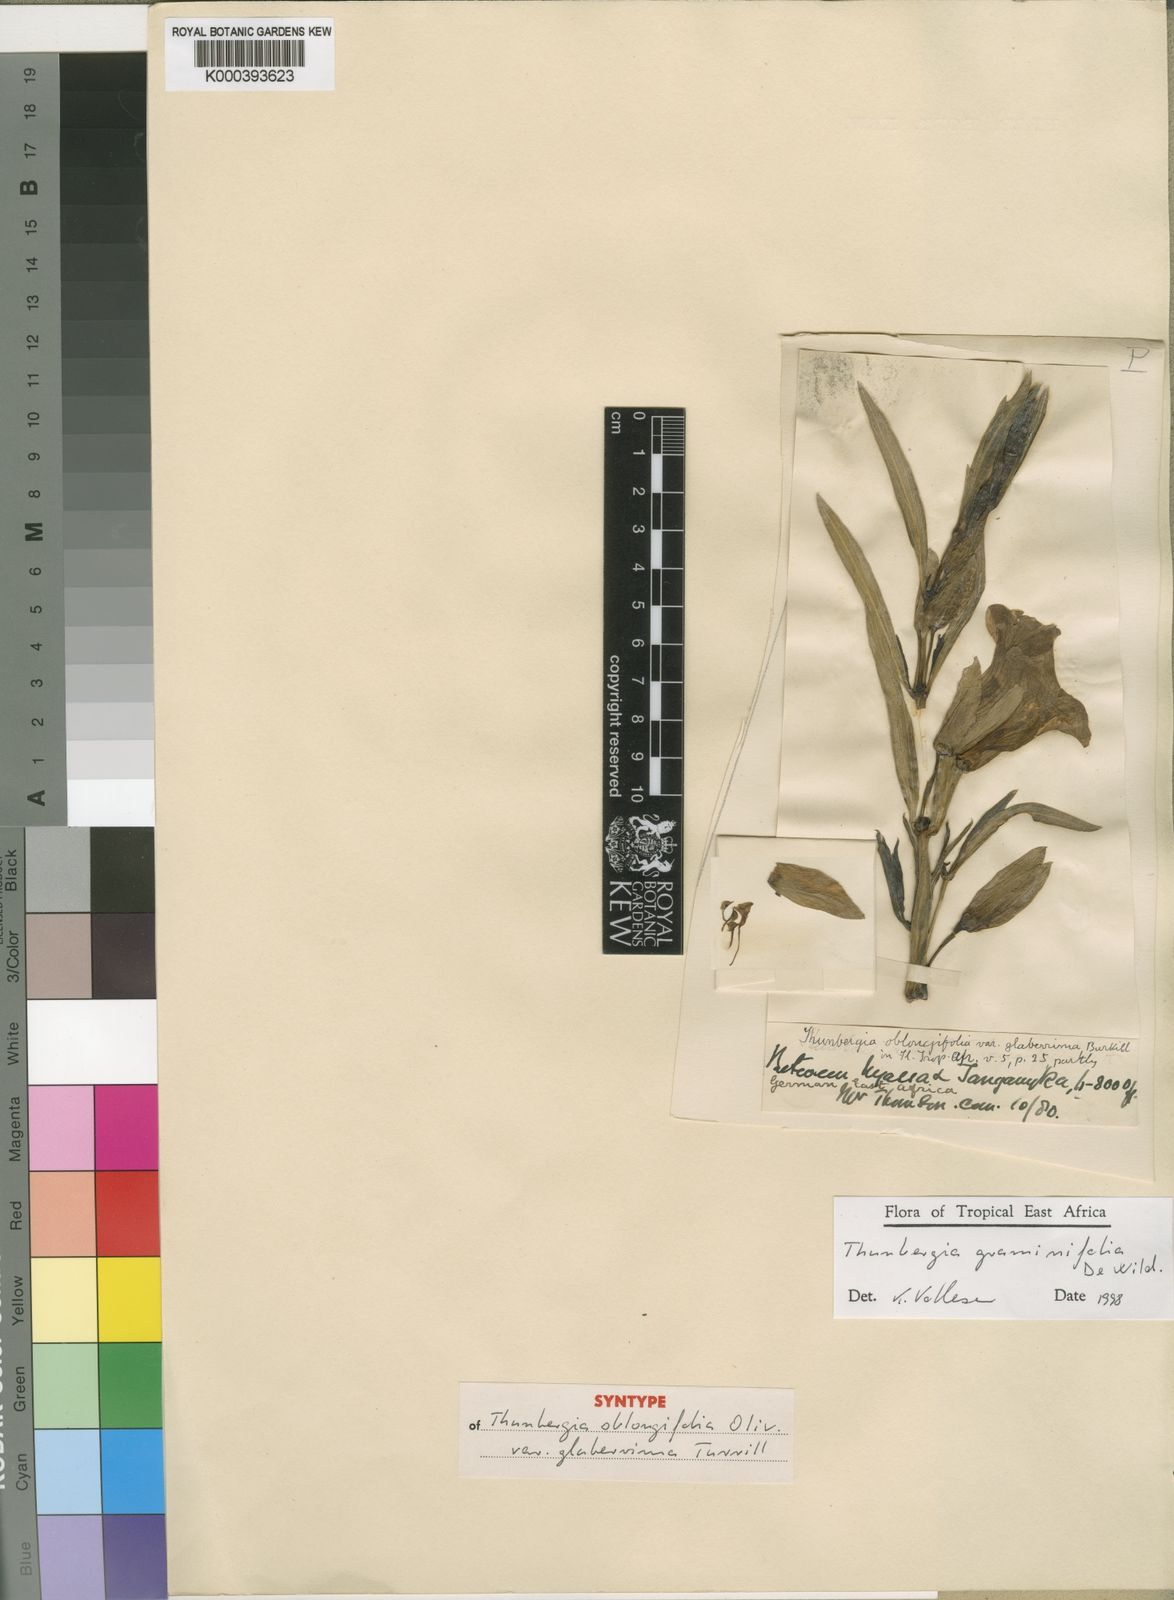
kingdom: Plantae
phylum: Tracheophyta
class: Magnoliopsida
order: Lamiales
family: Acanthaceae
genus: Thunbergia
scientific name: Thunbergia graminifolia
